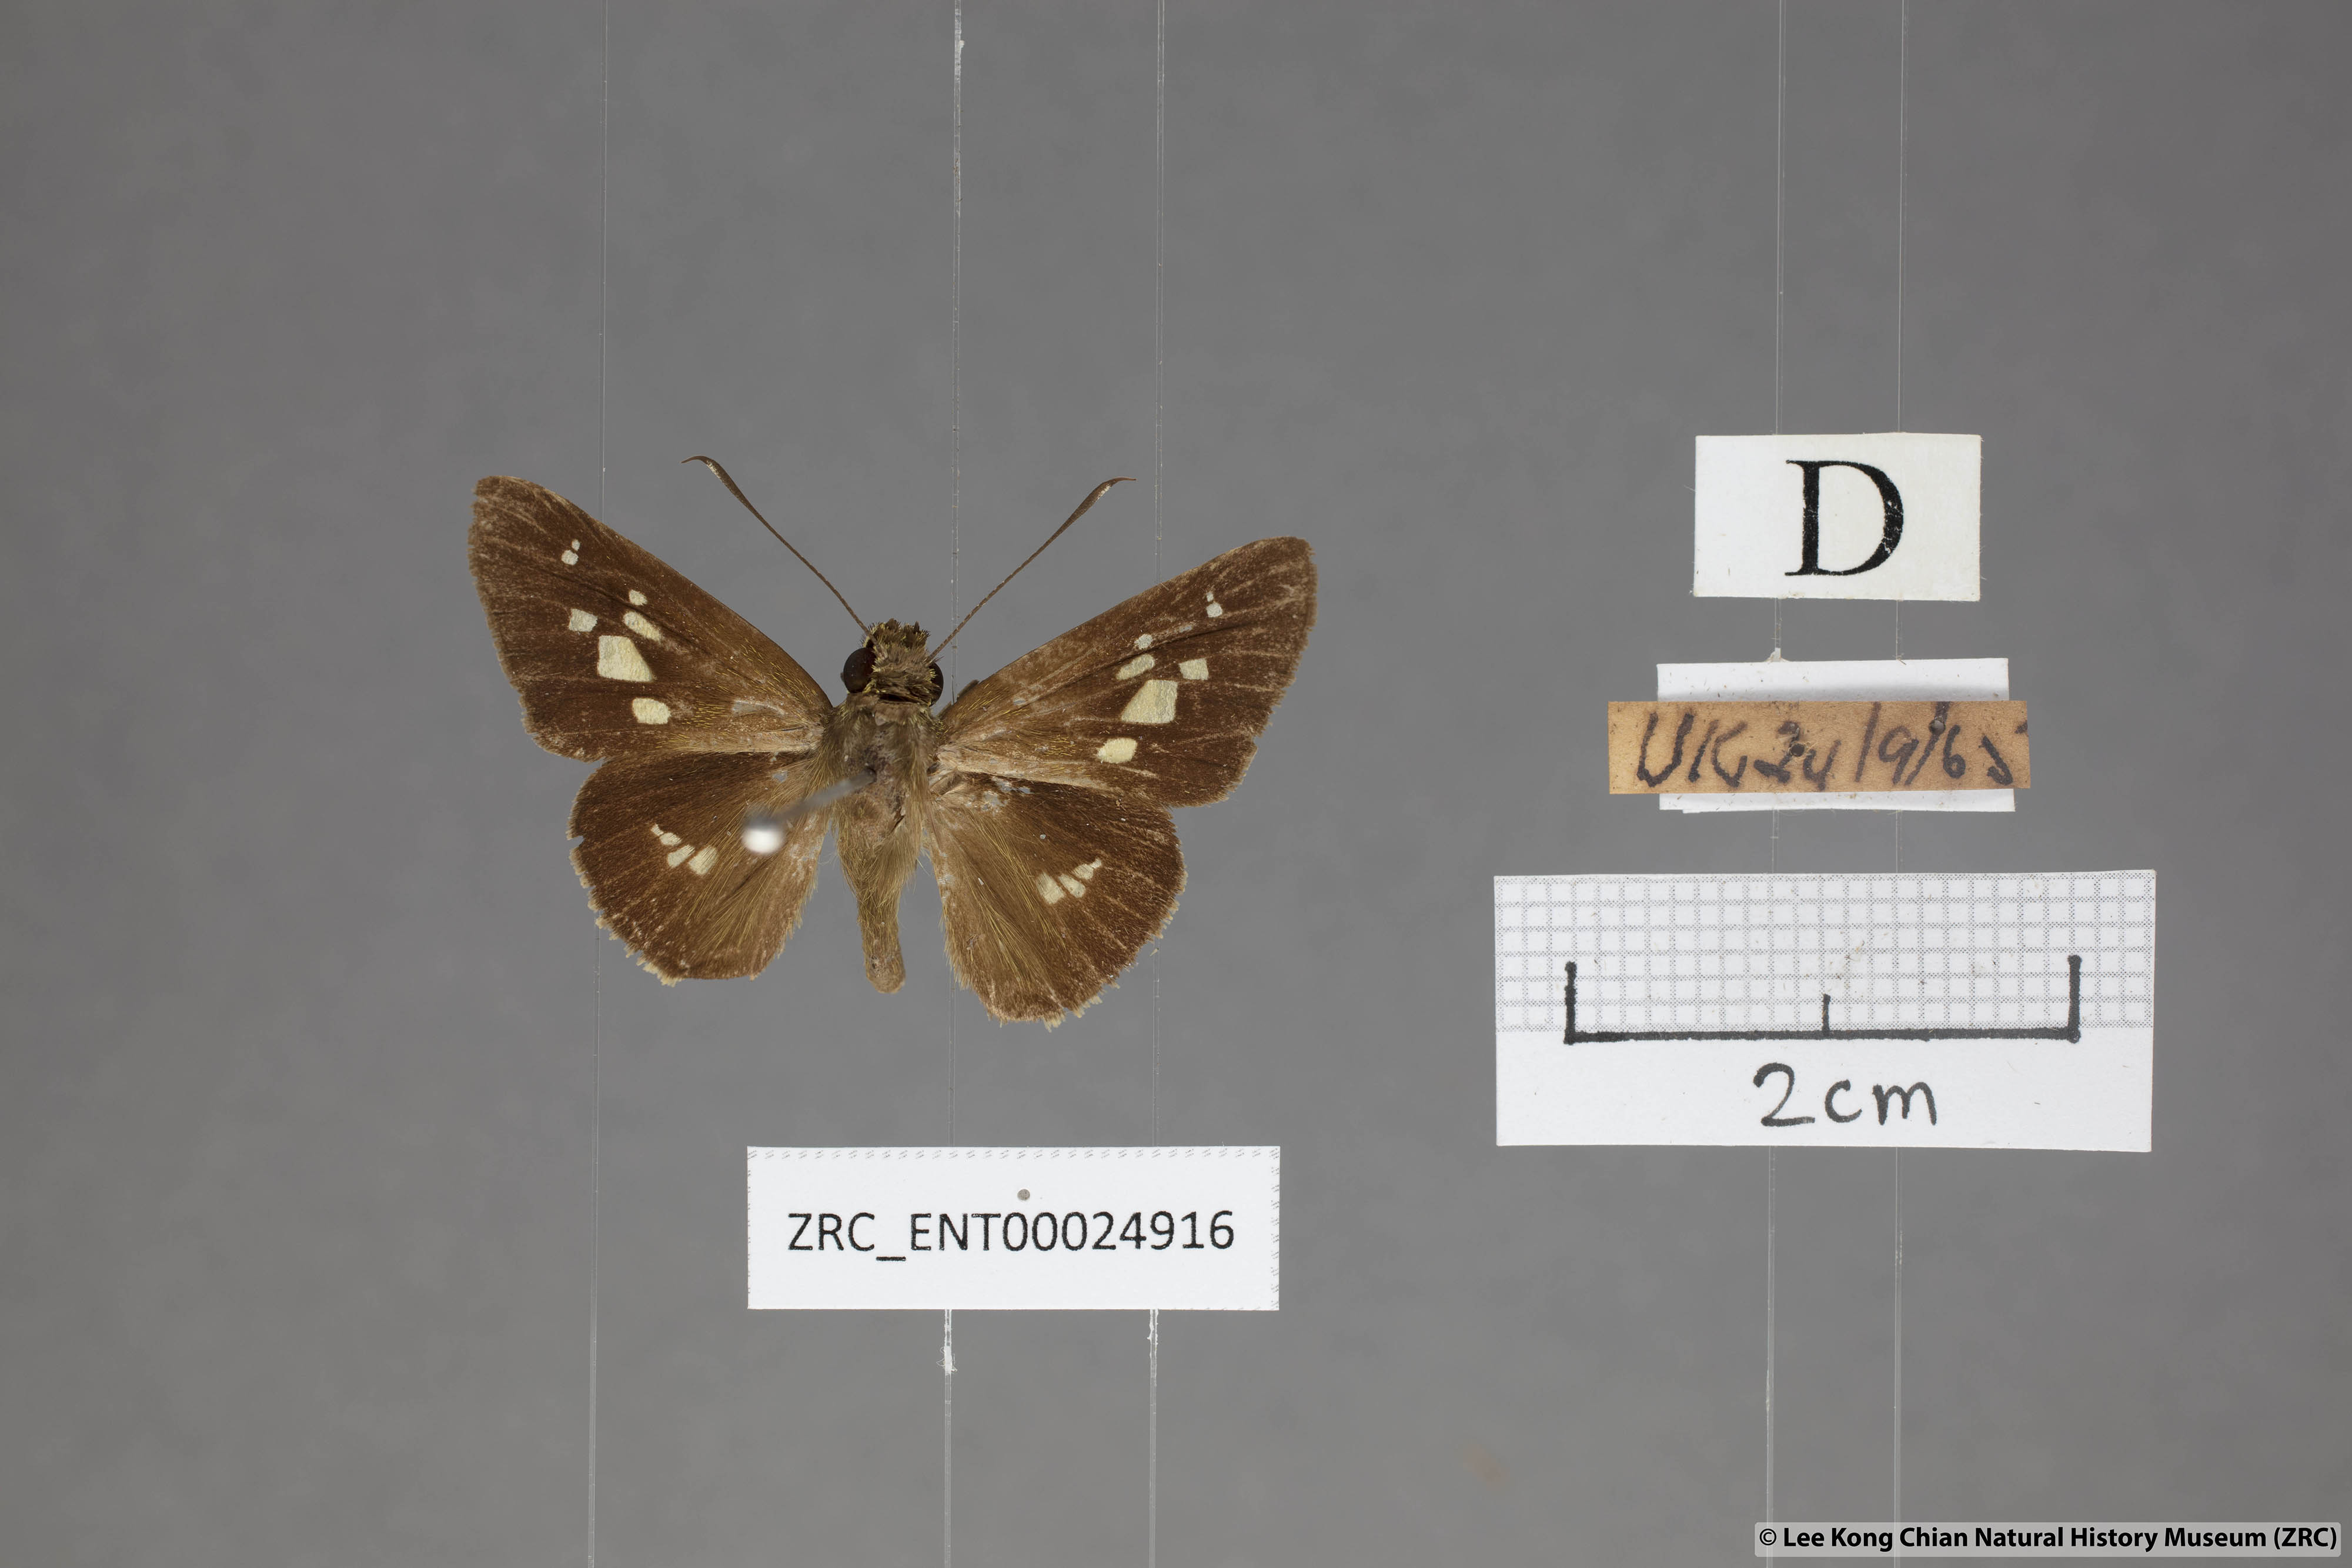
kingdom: Animalia
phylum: Arthropoda
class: Insecta
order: Lepidoptera
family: Hesperiidae
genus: Isma
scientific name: Isma umbrosa
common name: Large long-banded flitter
